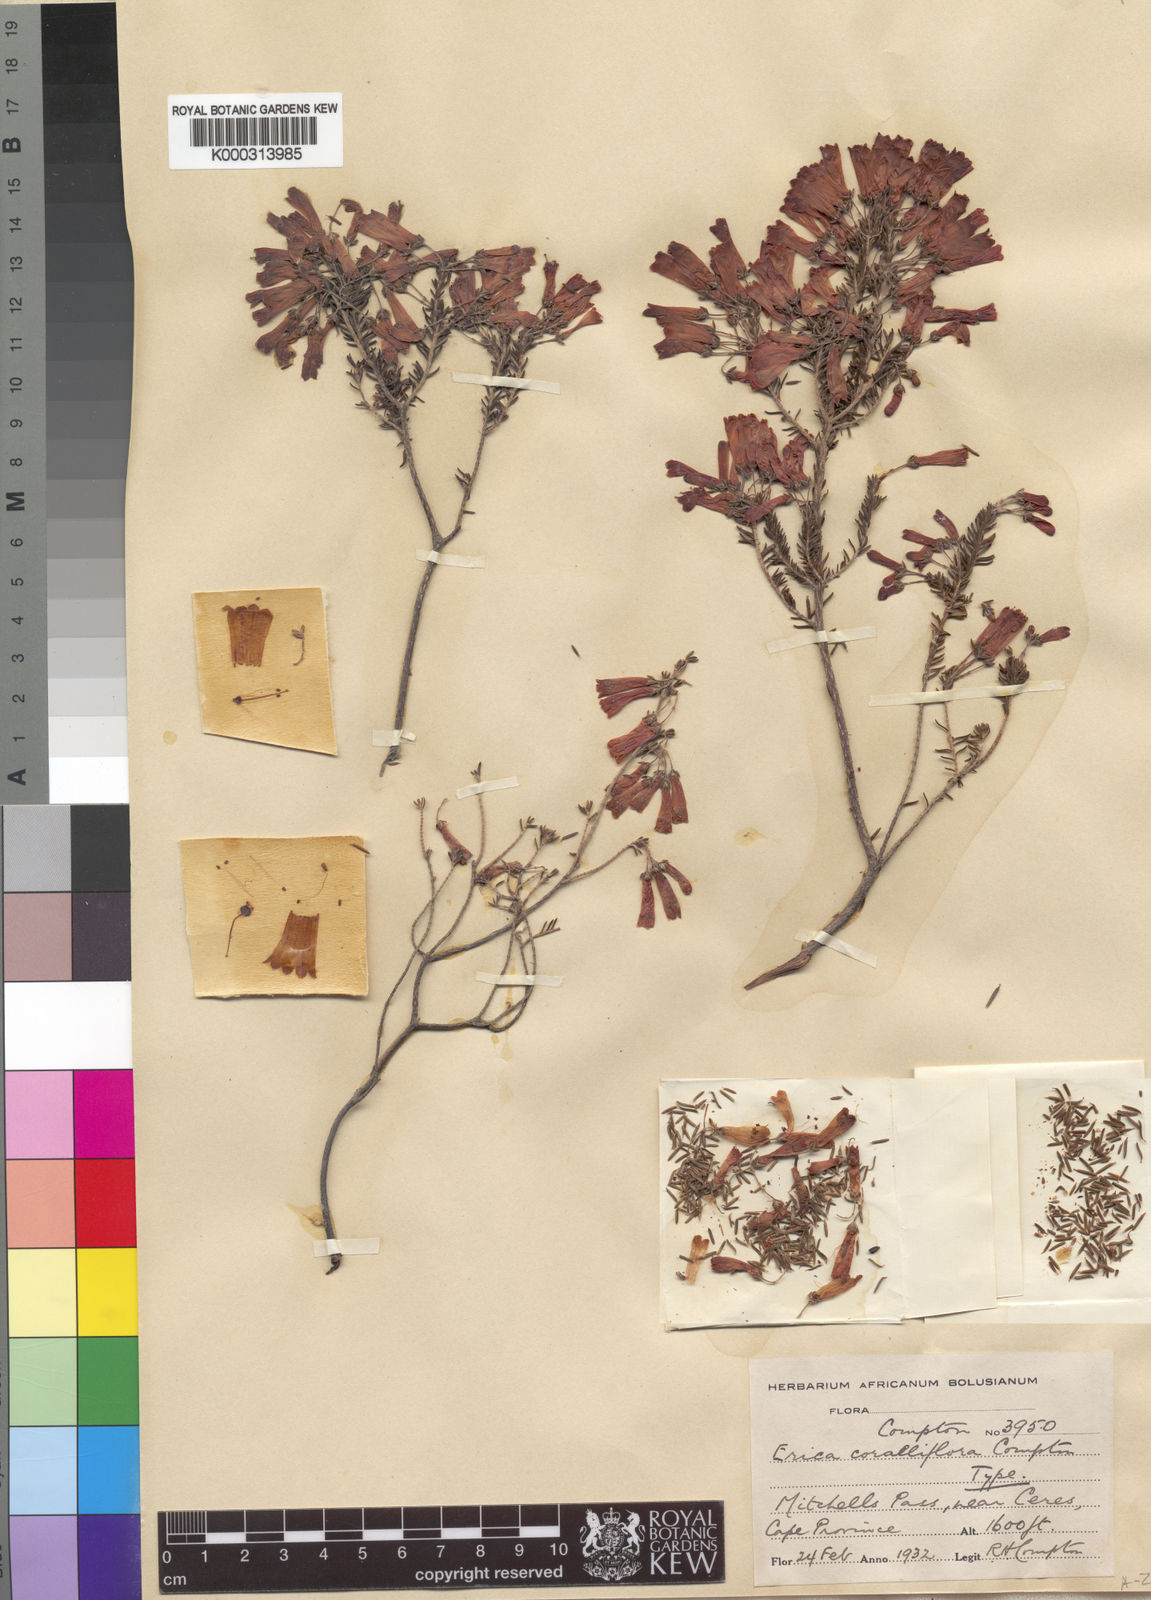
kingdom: Plantae
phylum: Tracheophyta
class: Magnoliopsida
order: Ericales
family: Ericaceae
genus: Erica
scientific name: Erica haematosiphon
